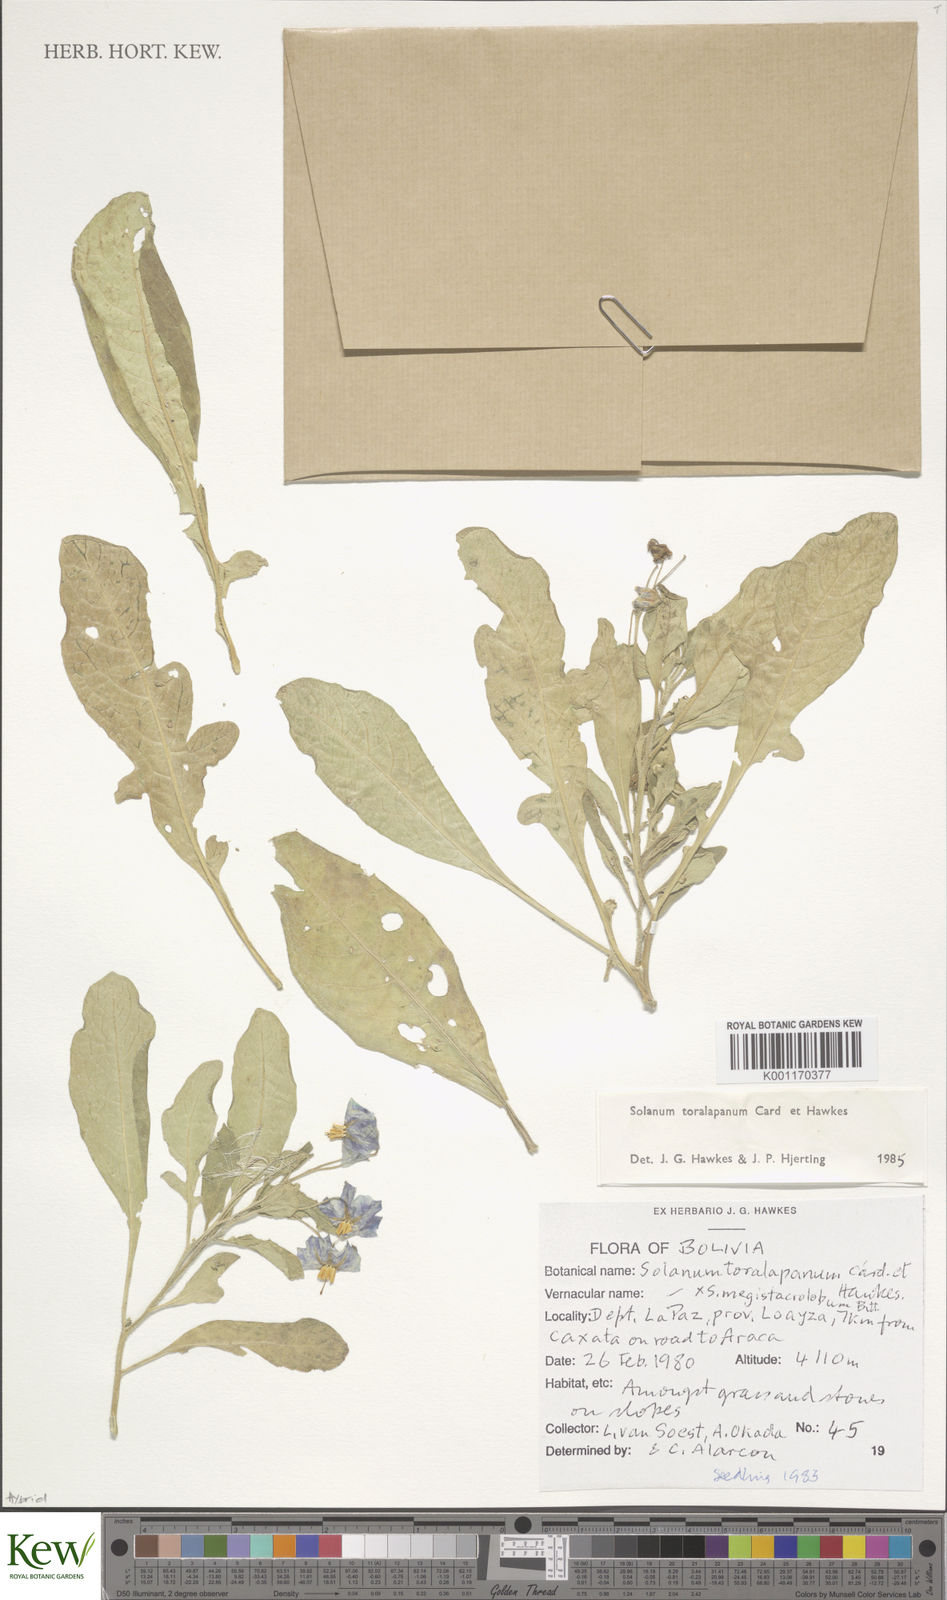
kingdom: Plantae
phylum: Tracheophyta
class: Magnoliopsida
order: Solanales
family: Solanaceae
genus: Solanum
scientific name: Solanum
